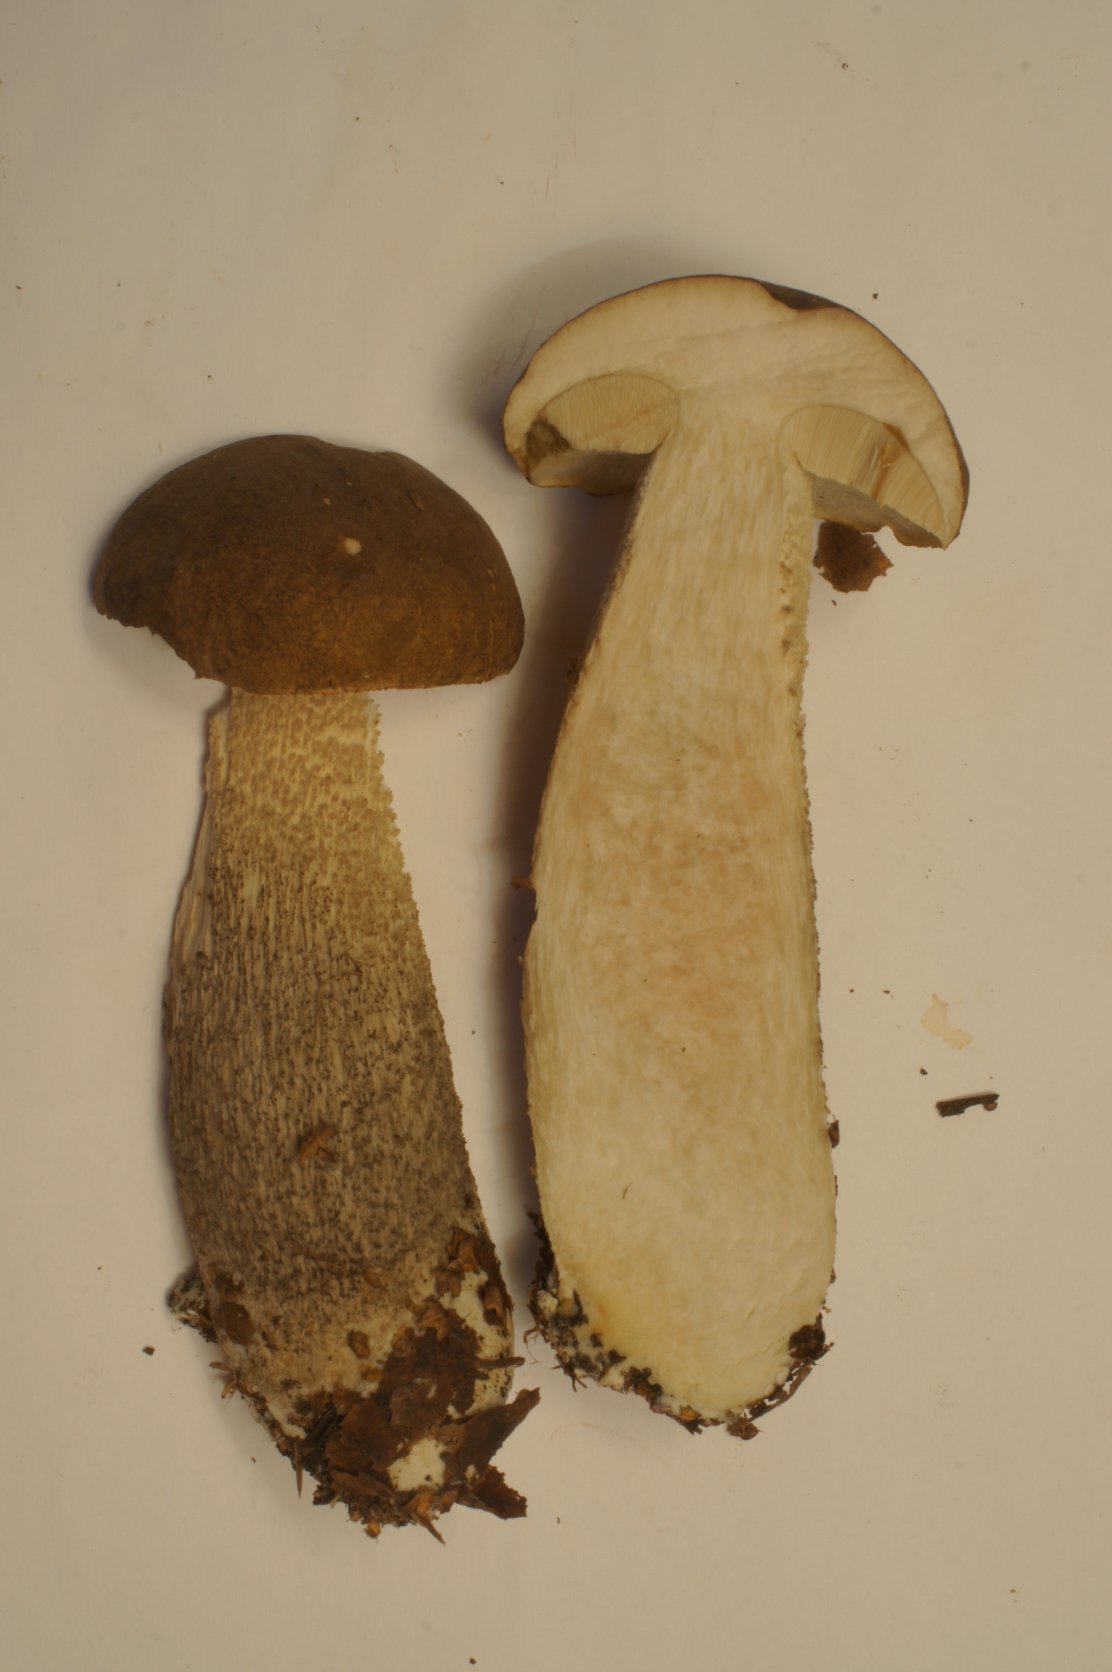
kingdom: Fungi
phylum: Basidiomycota
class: Agaricomycetes
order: Boletales
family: Boletaceae
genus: Leccinum
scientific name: Leccinum scabrum
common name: brun skælrørhat
